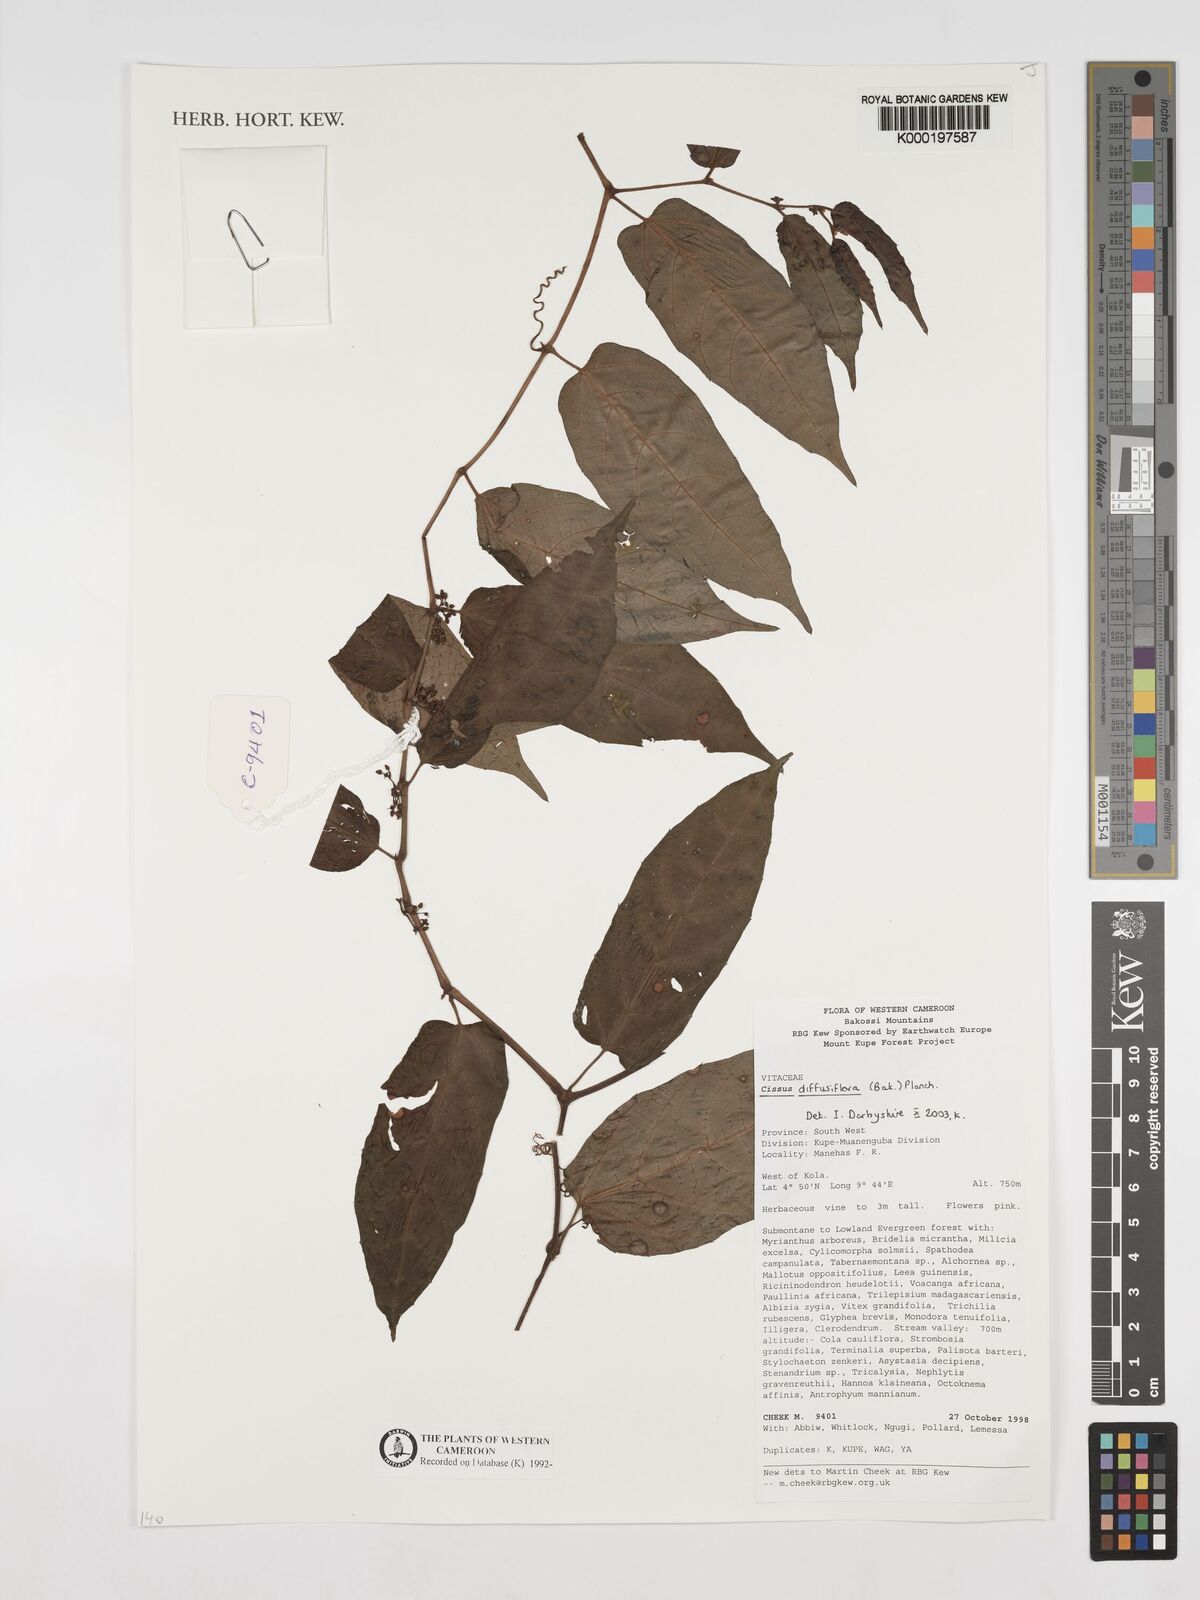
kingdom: Plantae
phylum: Tracheophyta
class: Magnoliopsida
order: Vitales
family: Vitaceae
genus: Cissus
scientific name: Cissus diffusiflora
